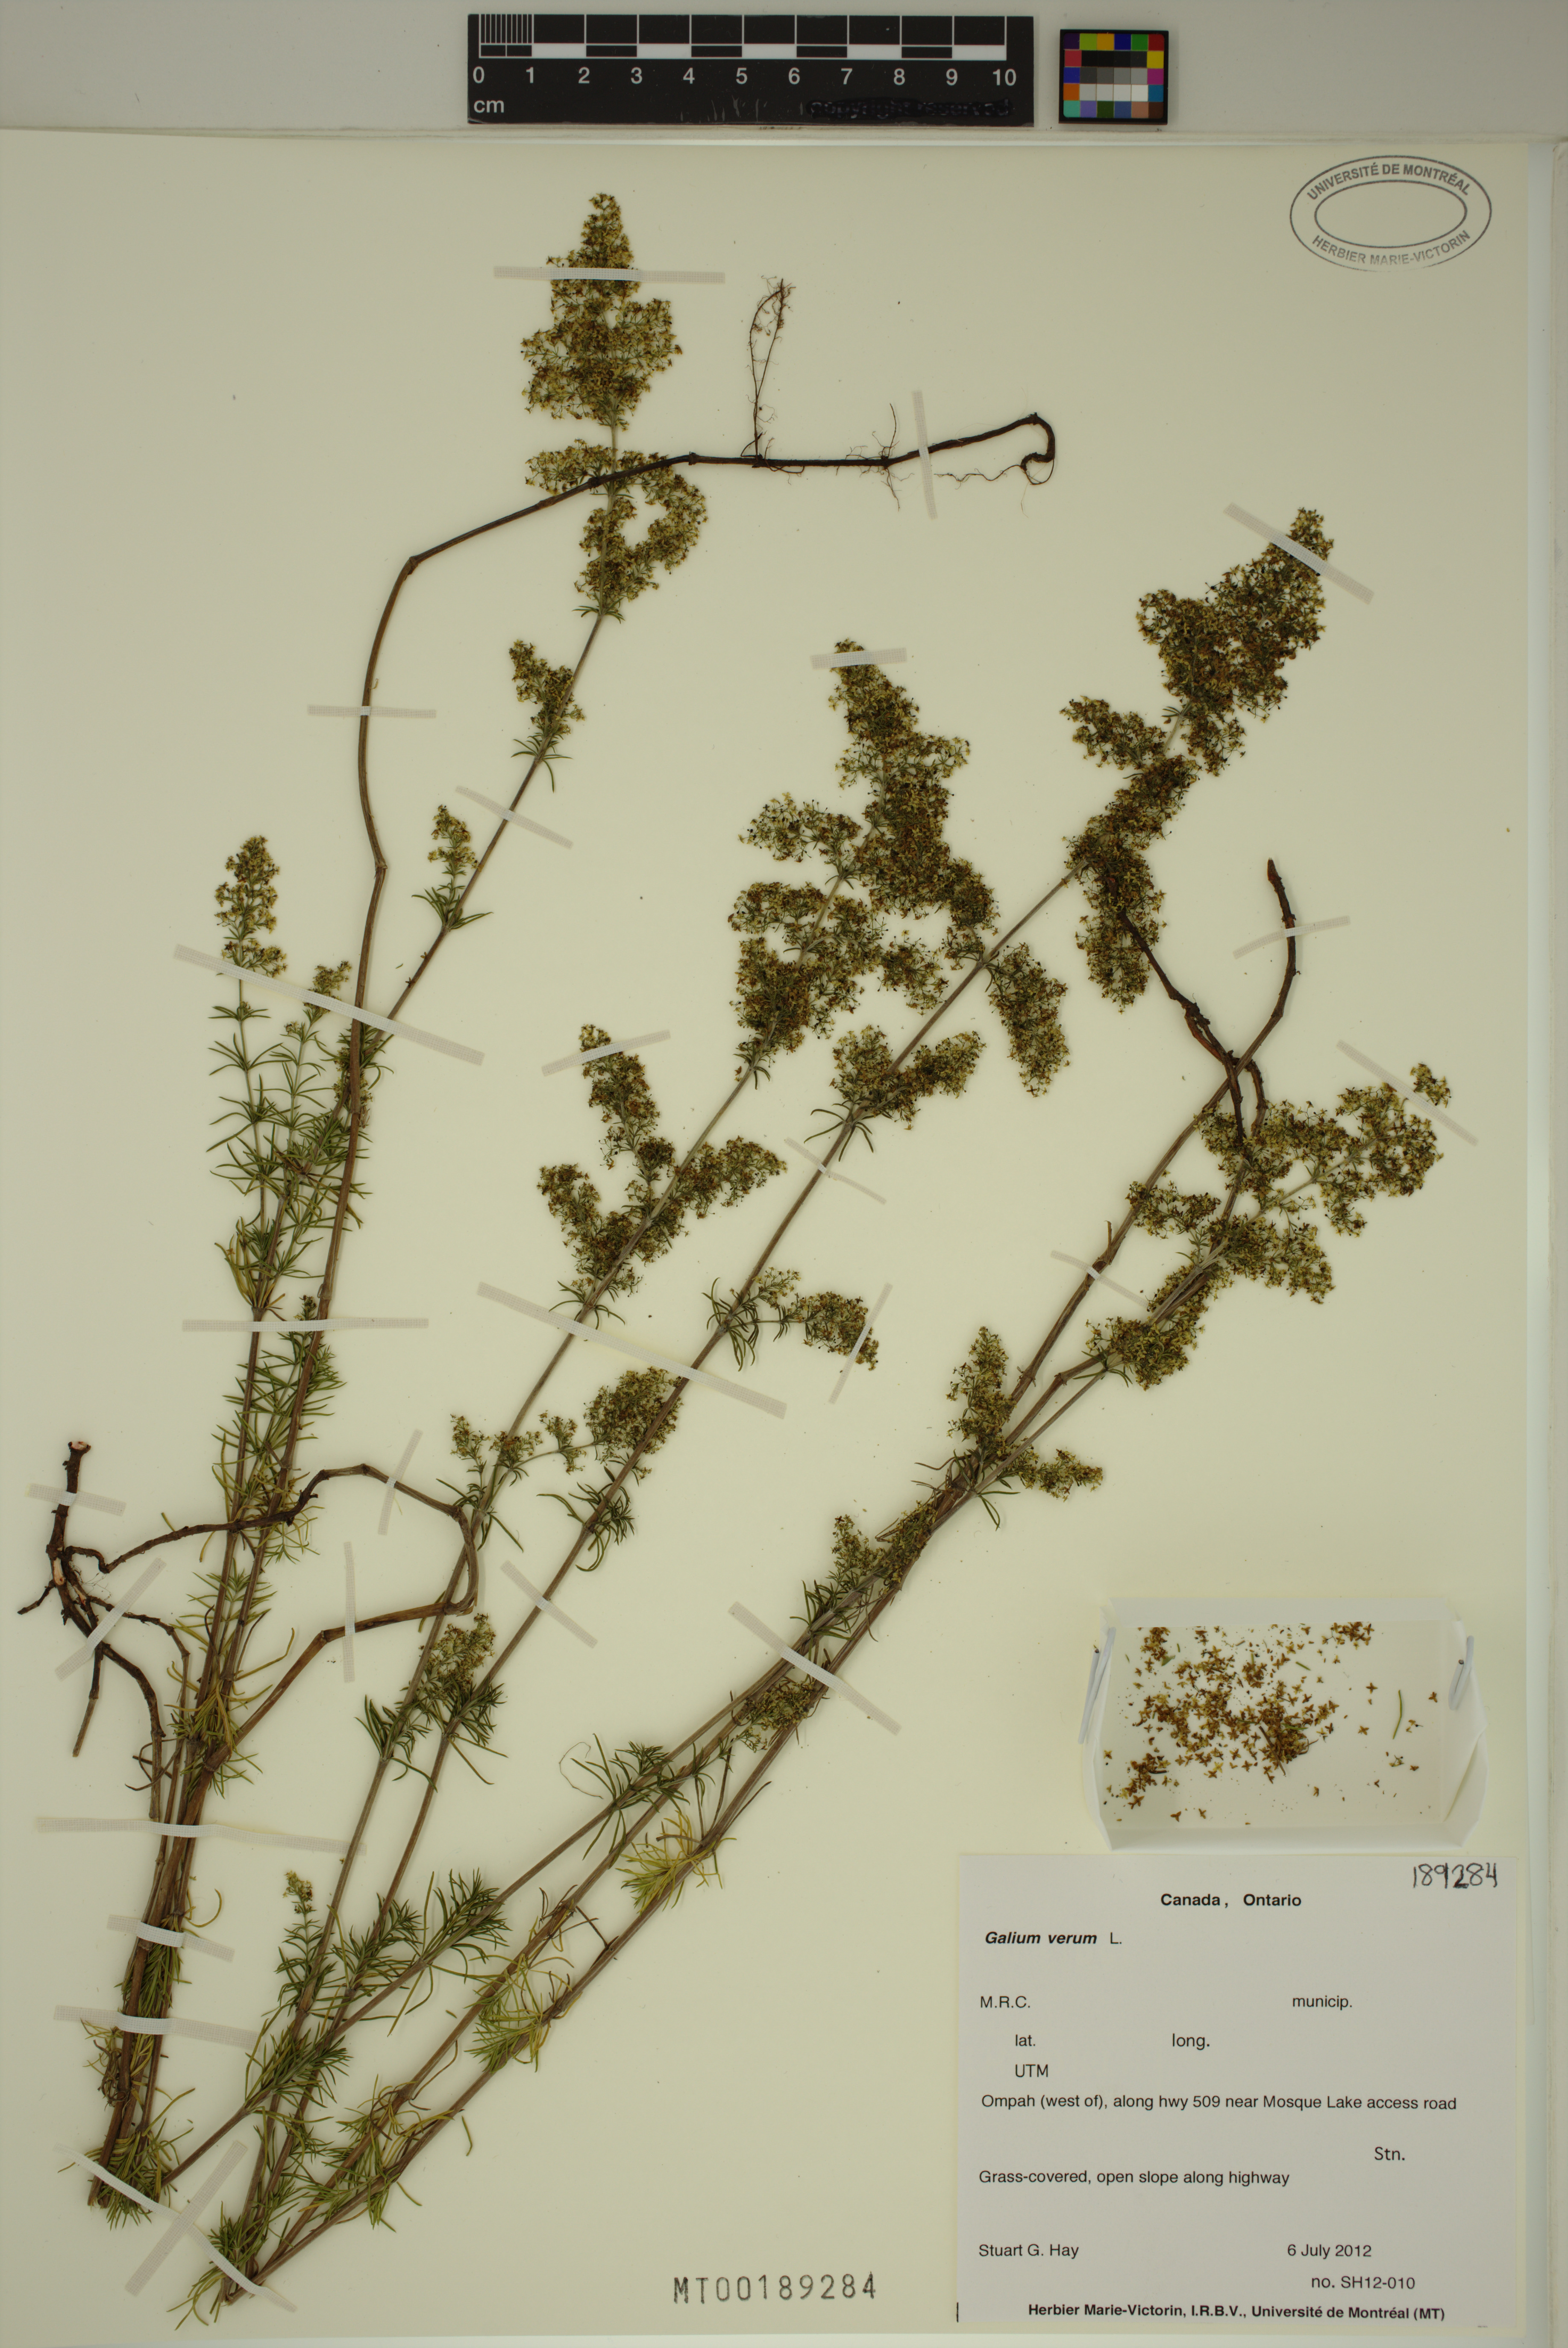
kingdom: Plantae
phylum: Tracheophyta
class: Magnoliopsida
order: Gentianales
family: Rubiaceae
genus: Galium
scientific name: Galium verum
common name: Lady's bedstraw
